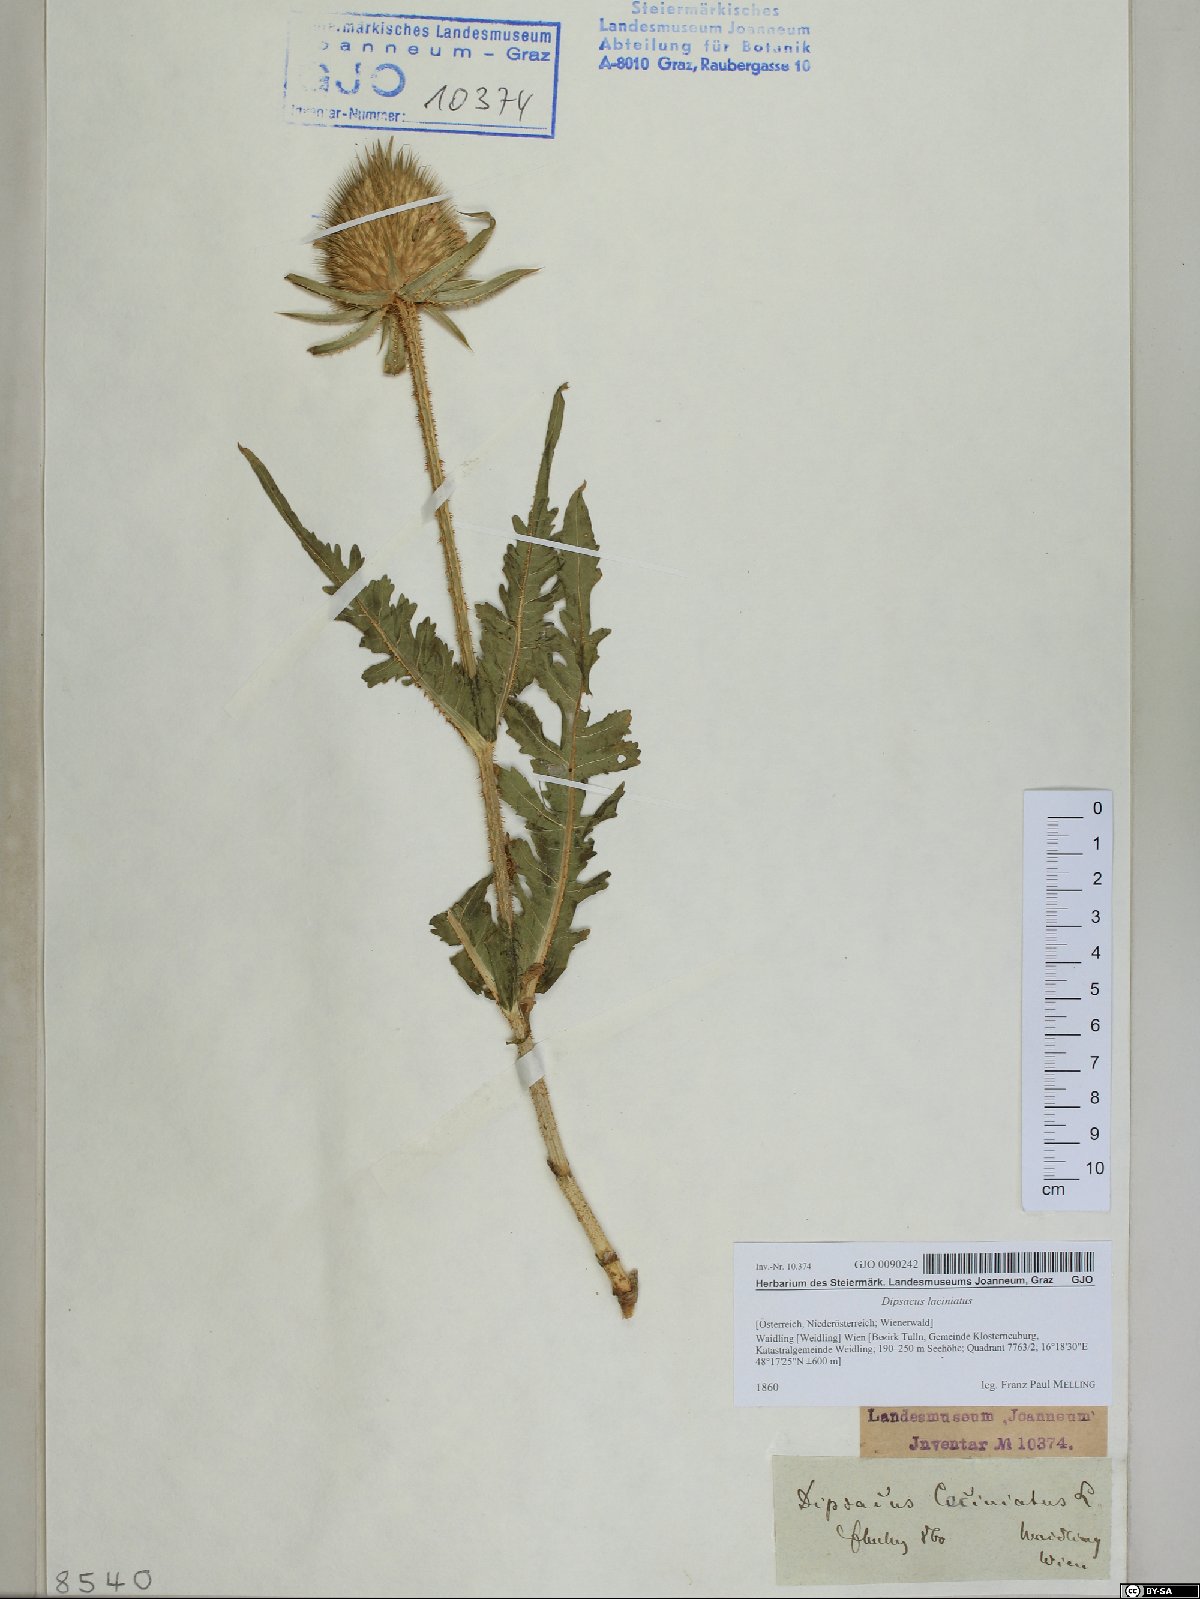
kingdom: Plantae
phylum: Tracheophyta
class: Magnoliopsida
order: Dipsacales
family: Caprifoliaceae
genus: Dipsacus
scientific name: Dipsacus laciniatus
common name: Cut-leaved teasel
